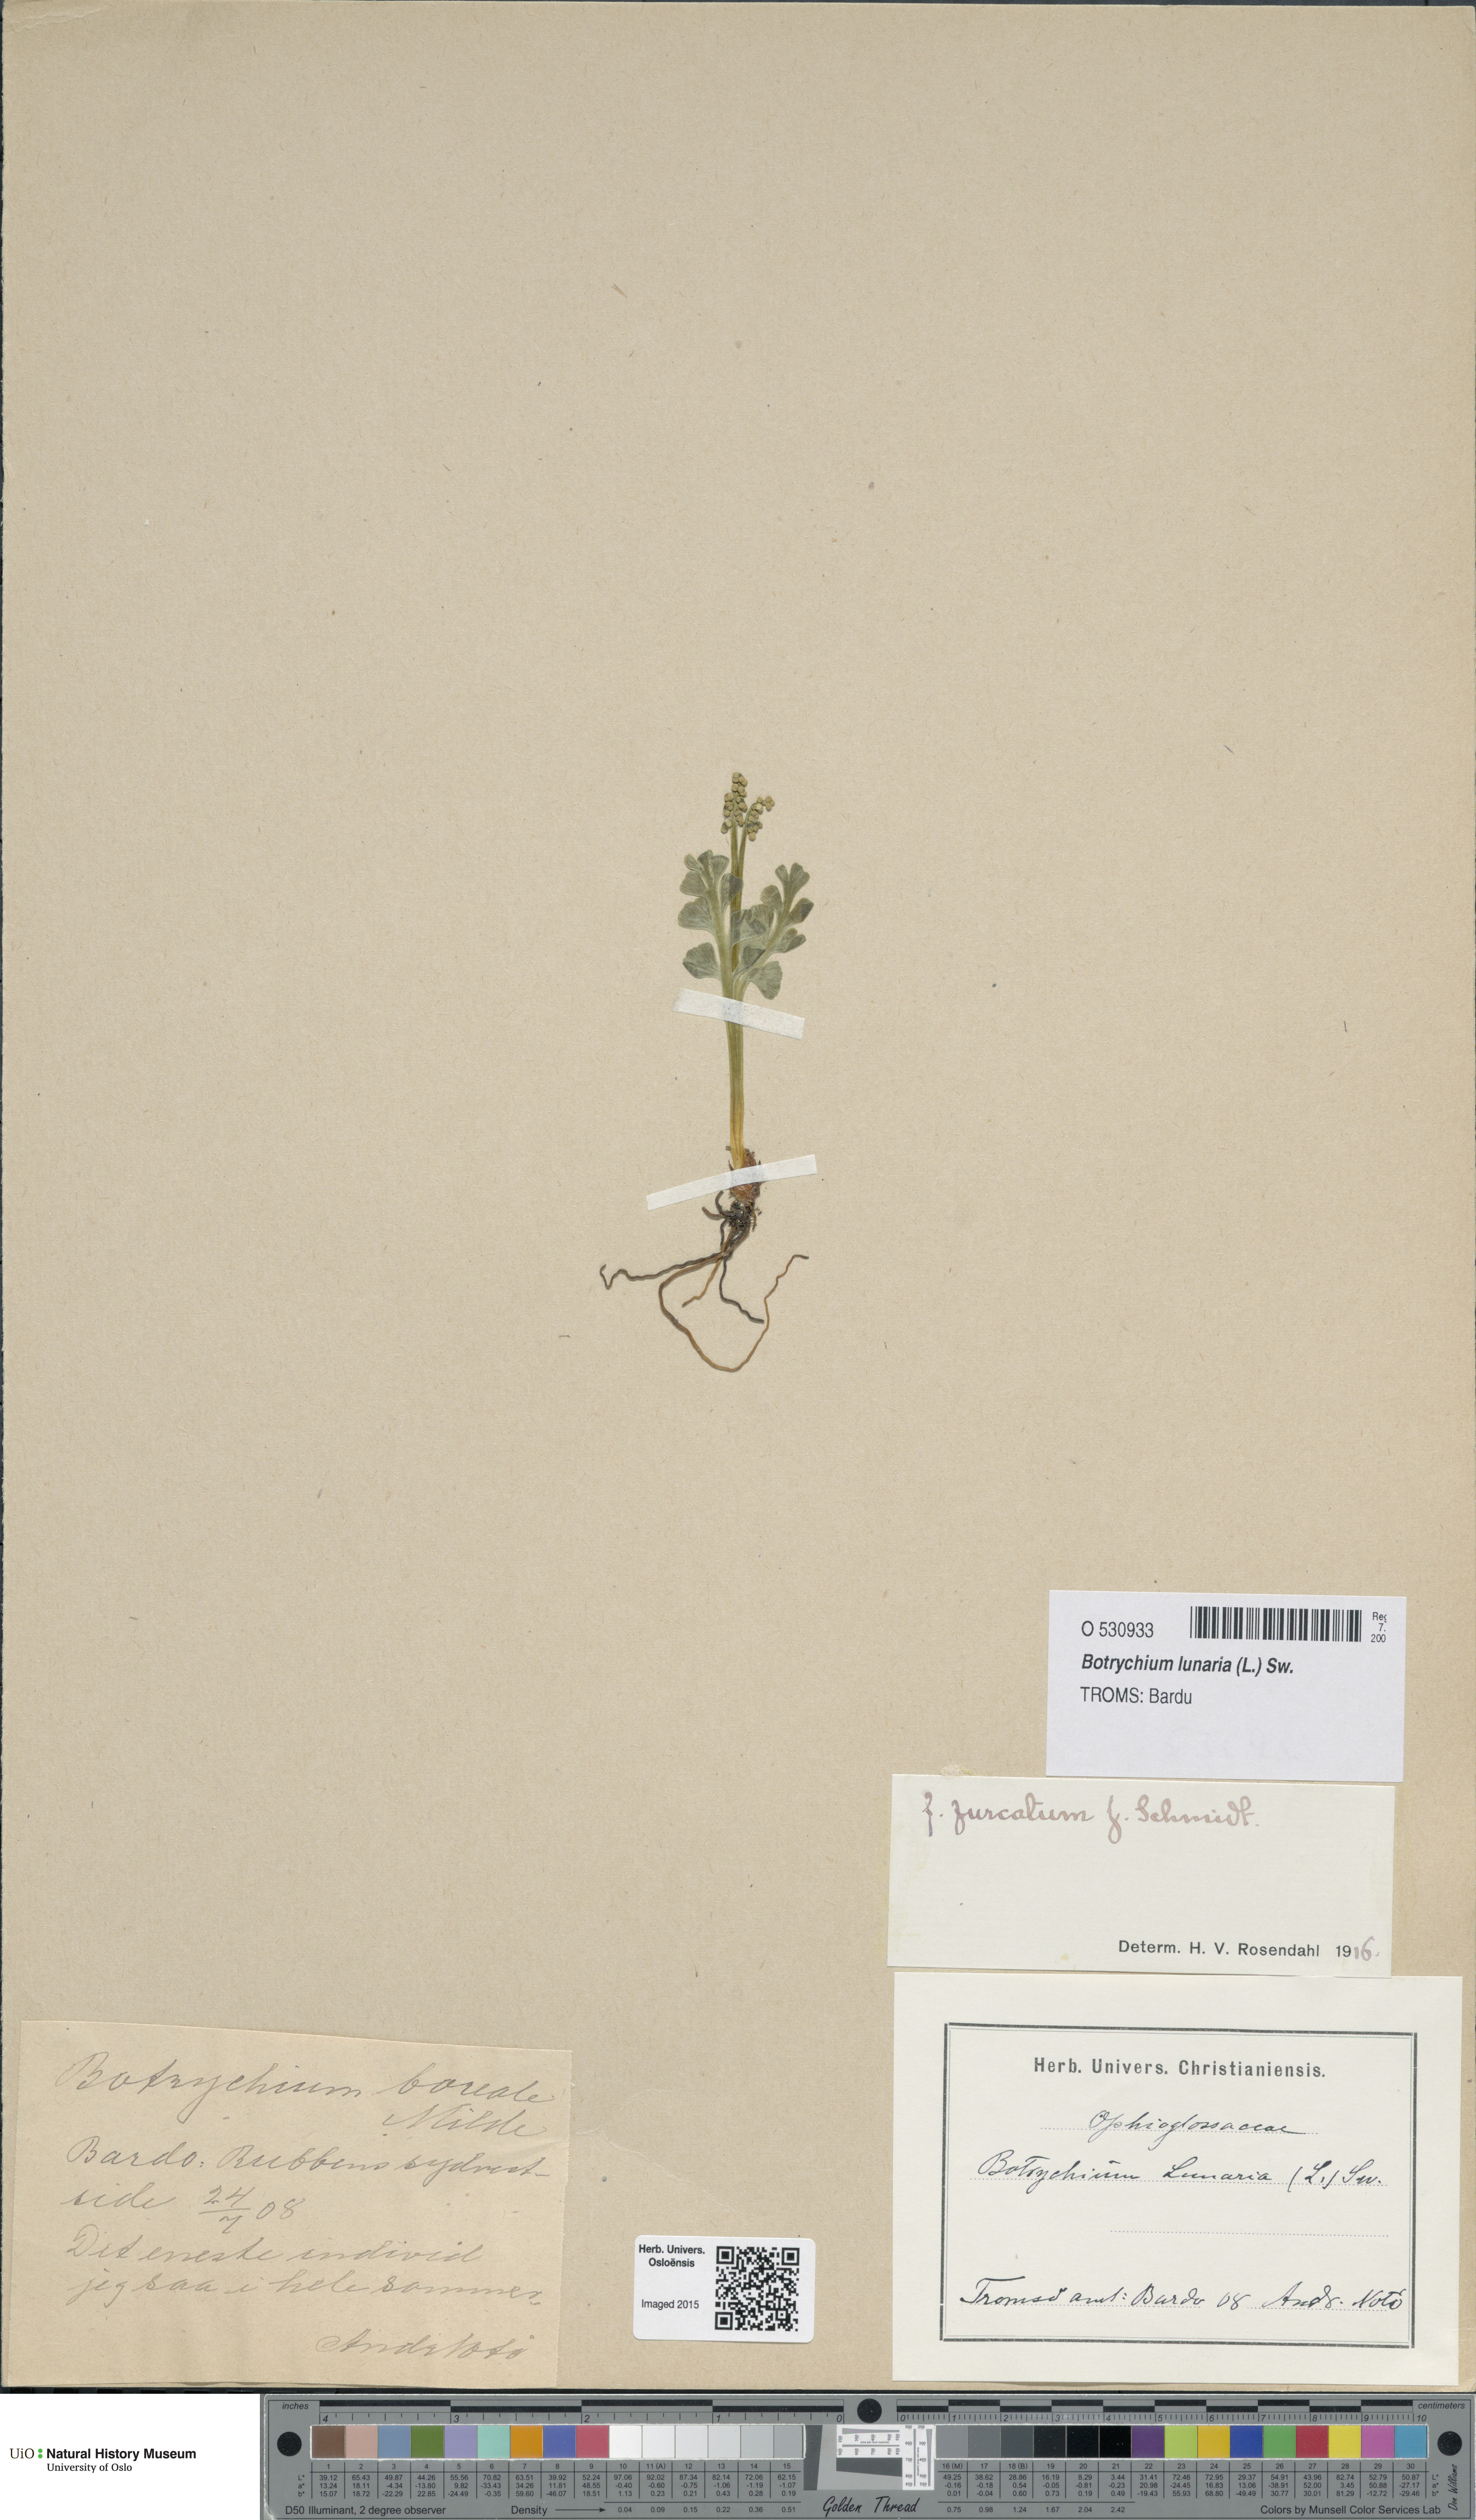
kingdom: Plantae
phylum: Tracheophyta
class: Polypodiopsida
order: Ophioglossales
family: Ophioglossaceae
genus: Botrychium
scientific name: Botrychium lunaria
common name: Moonwort
